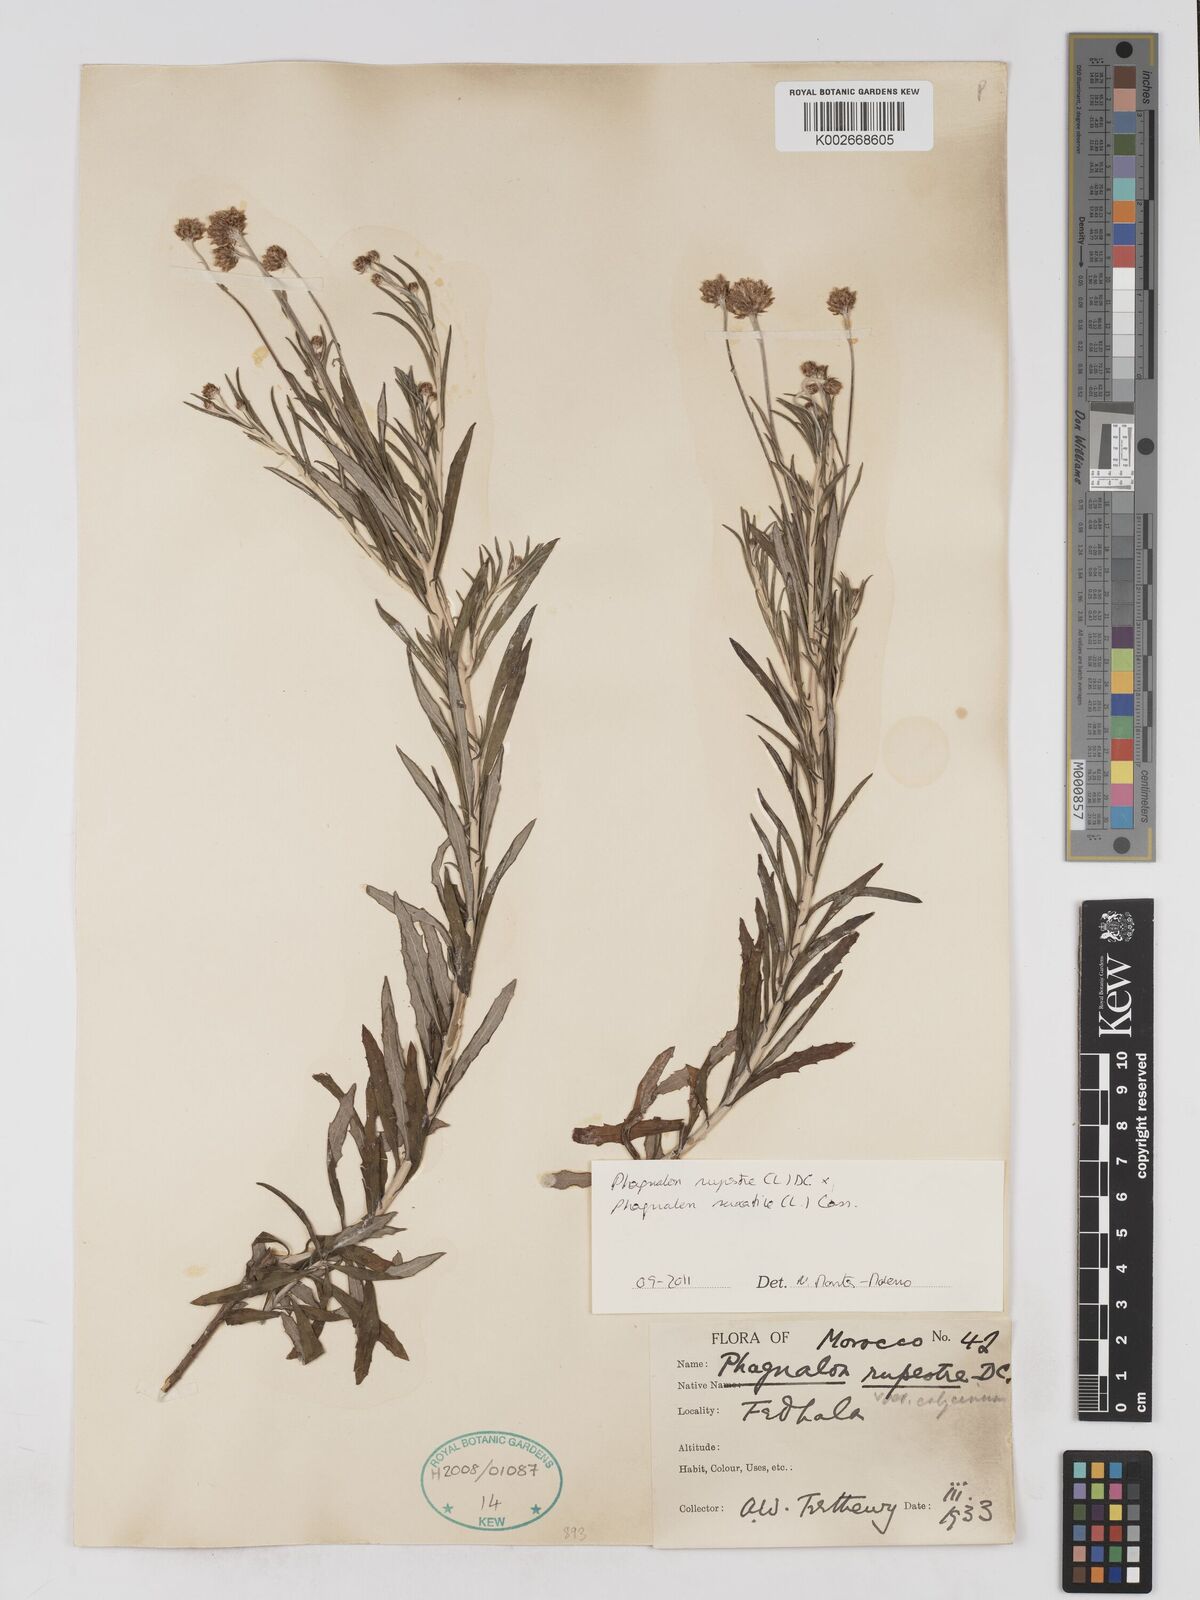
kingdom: Plantae
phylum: Tracheophyta
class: Magnoliopsida
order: Asterales
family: Asteraceae
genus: Phagnalon
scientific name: Phagnalon saxatile
